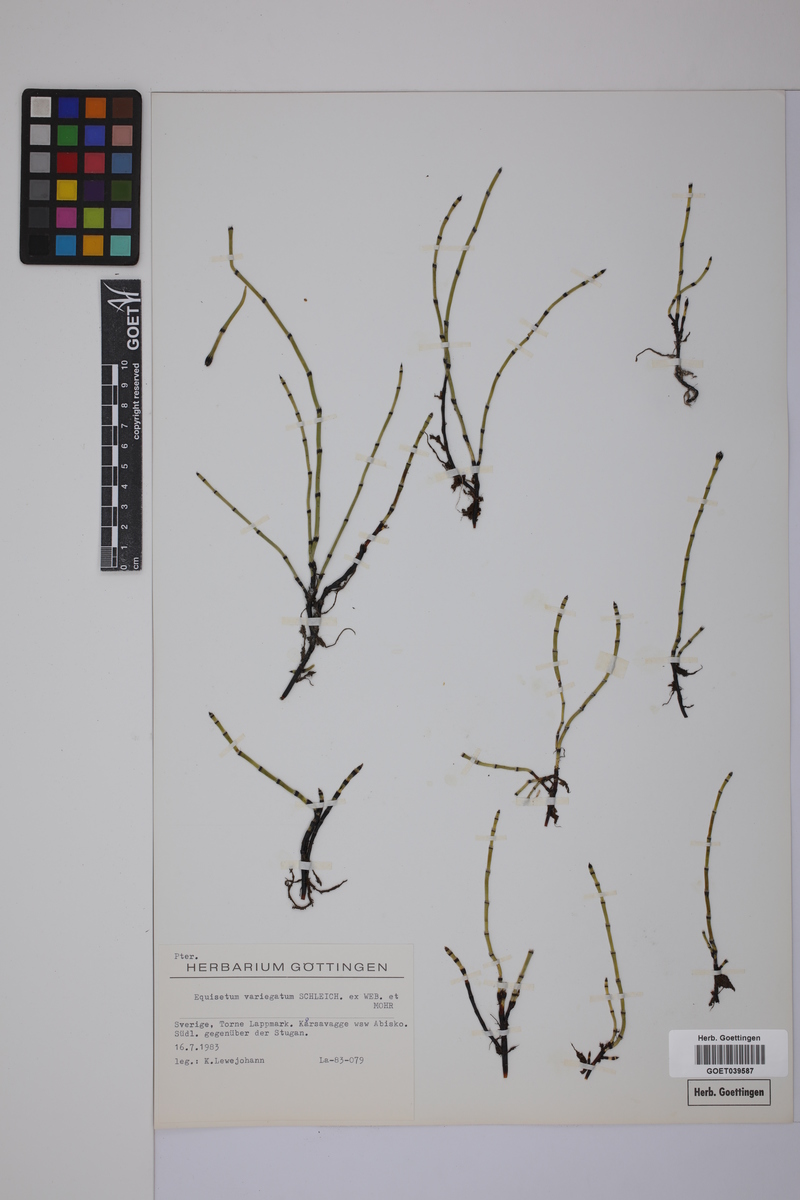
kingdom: Plantae
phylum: Tracheophyta
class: Polypodiopsida
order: Equisetales
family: Equisetaceae
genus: Equisetum
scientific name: Equisetum variegatum
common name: Variegated horsetail
